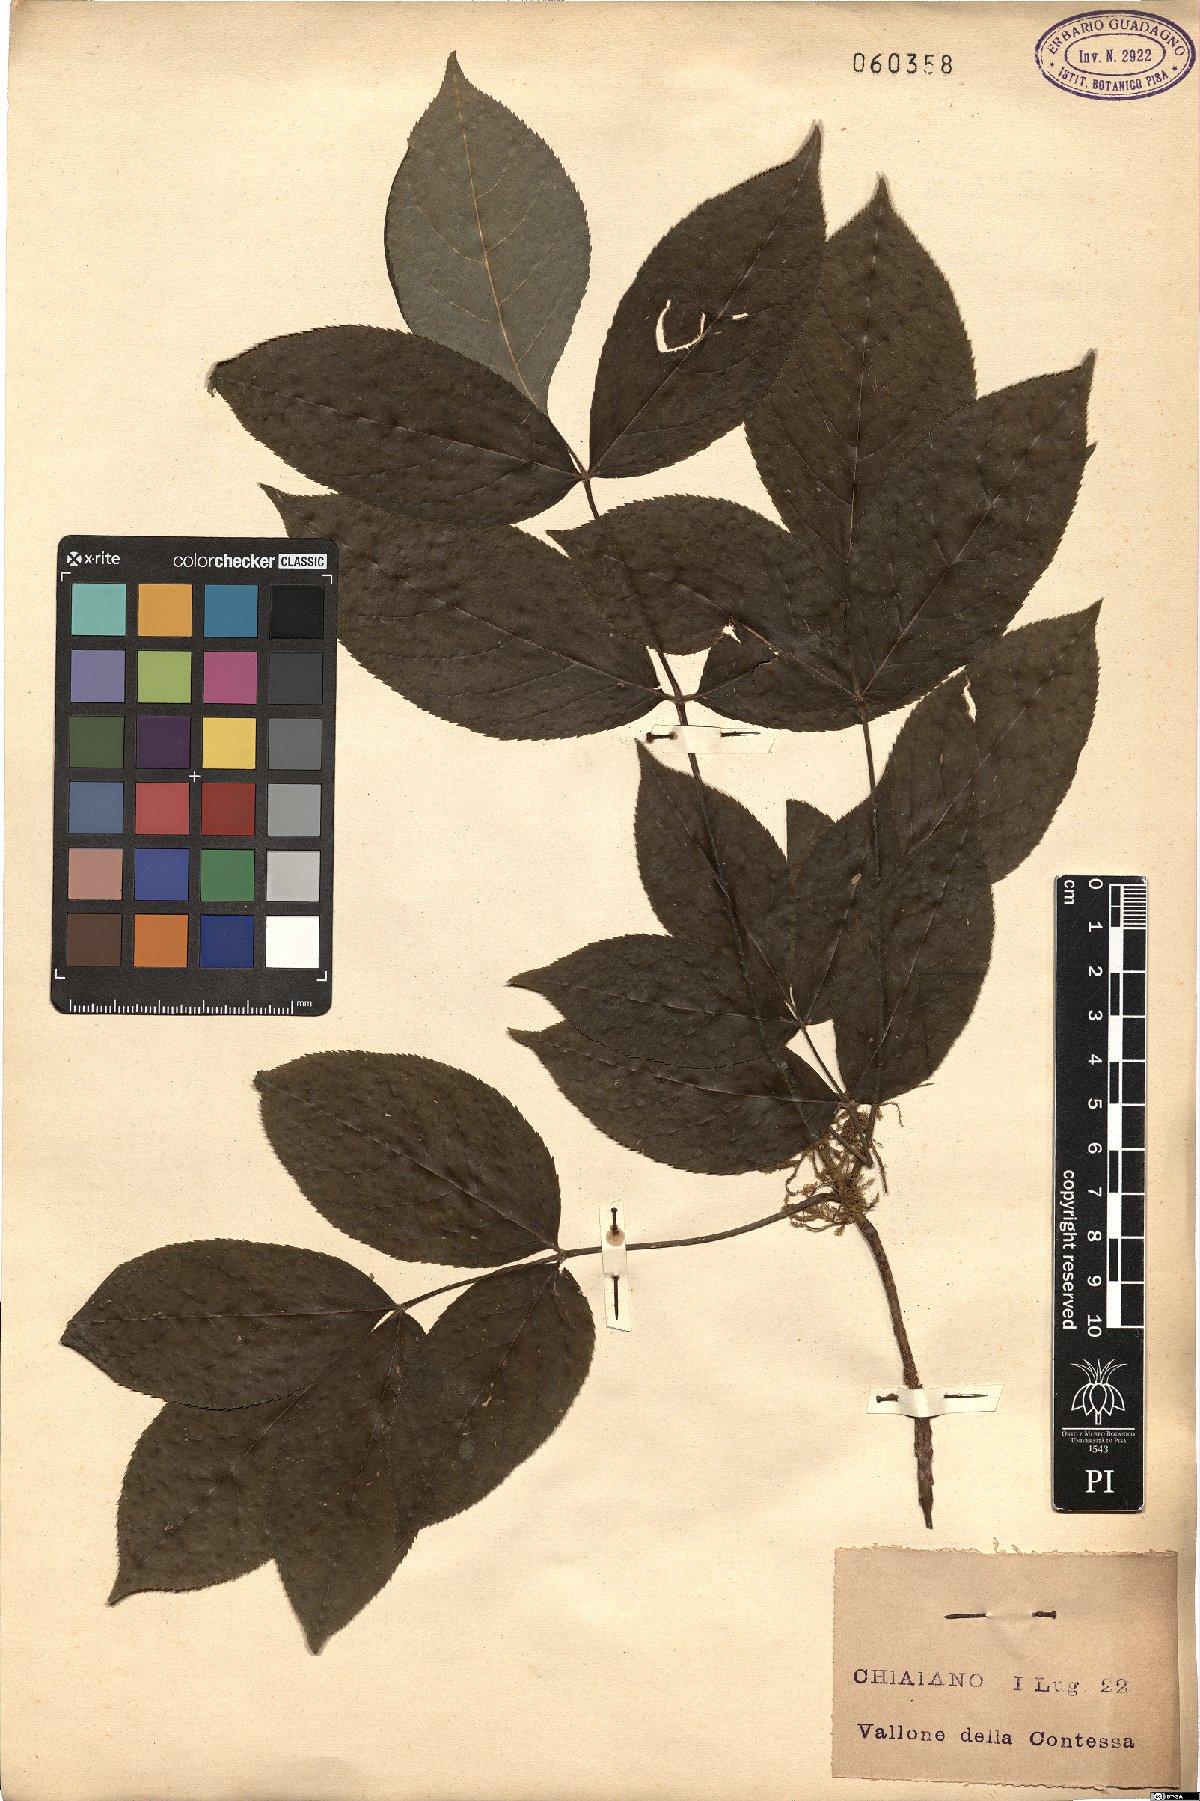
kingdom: Plantae
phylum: Tracheophyta
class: Magnoliopsida
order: Dipsacales
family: Viburnaceae
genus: Sambucus
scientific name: Sambucus nigra
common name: Elder
